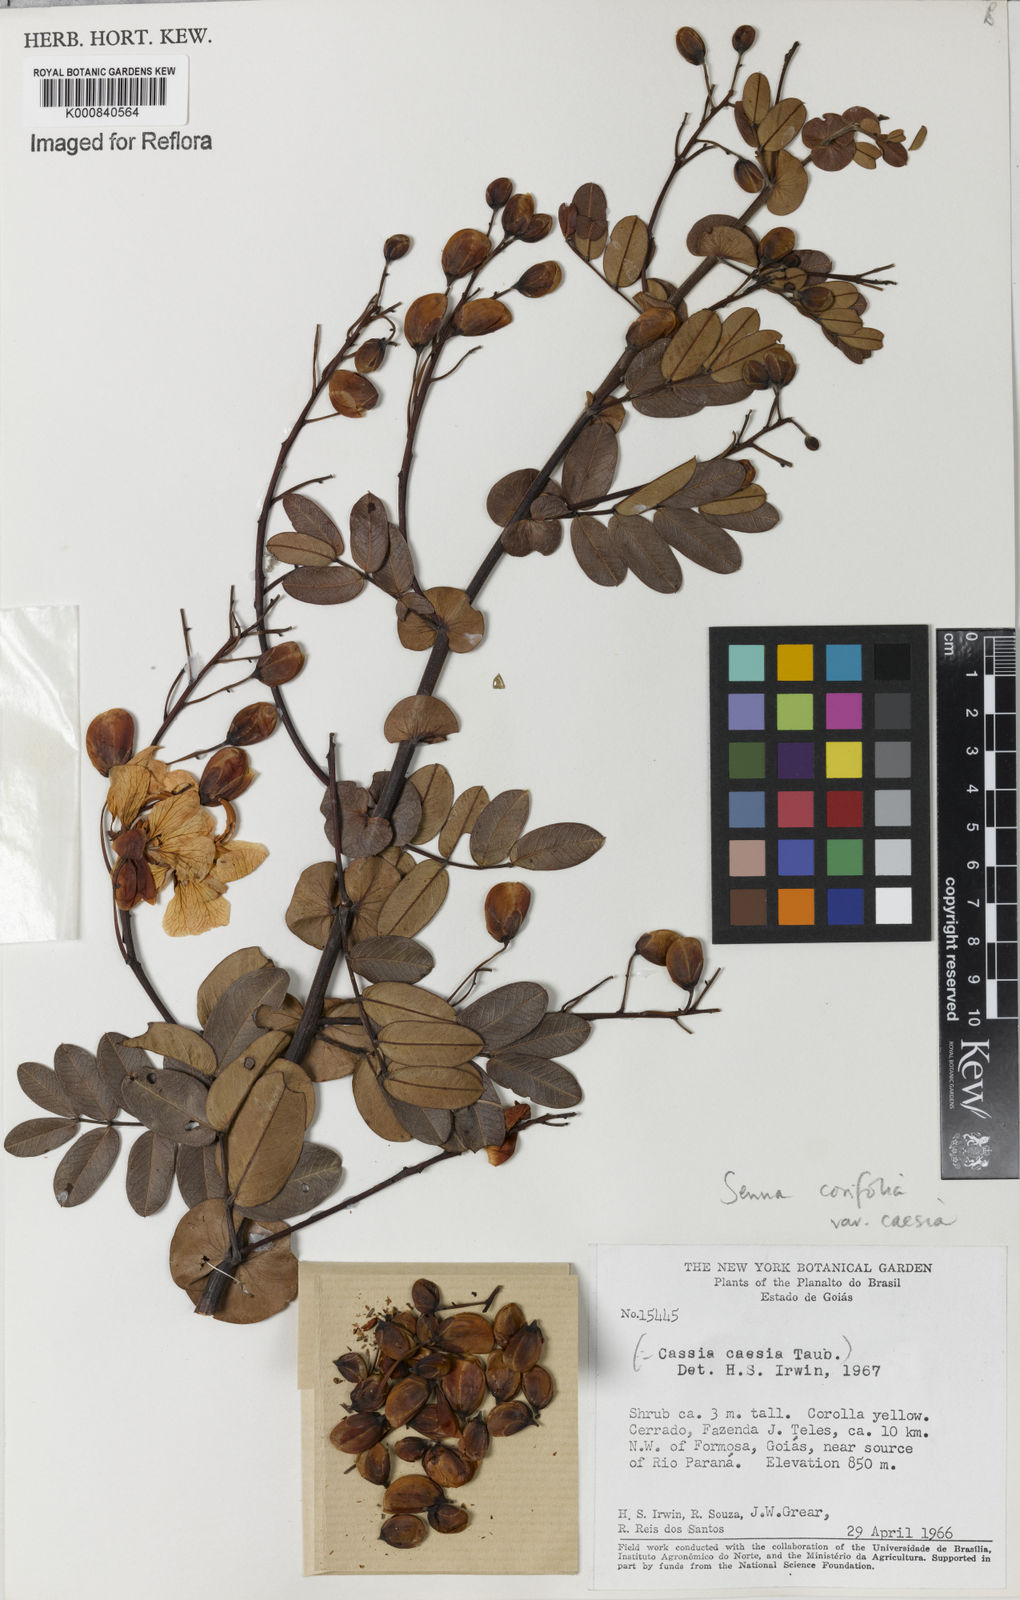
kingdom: Plantae
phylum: Tracheophyta
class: Magnoliopsida
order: Fabales
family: Fabaceae
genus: Senna
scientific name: Senna corifolia
